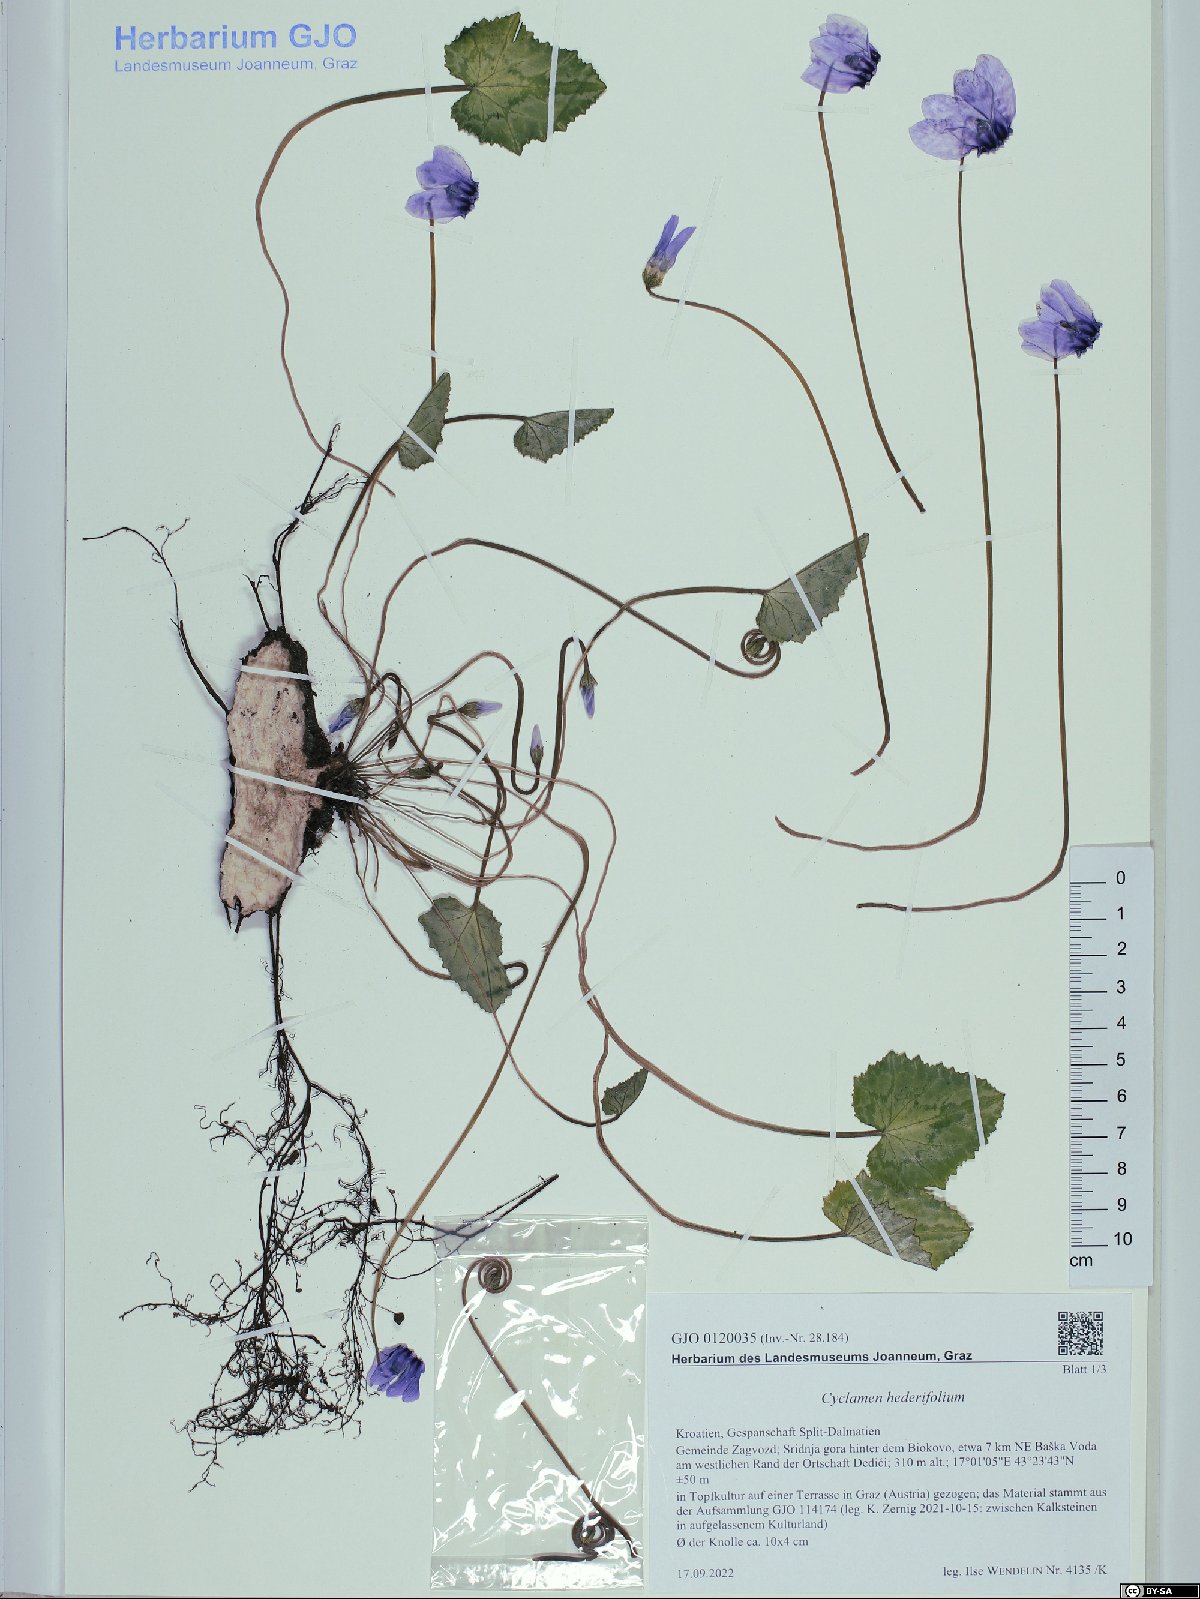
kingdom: Plantae
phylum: Tracheophyta
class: Magnoliopsida
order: Ericales
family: Primulaceae
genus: Cyclamen
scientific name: Cyclamen hederifolium
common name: Sowbread
